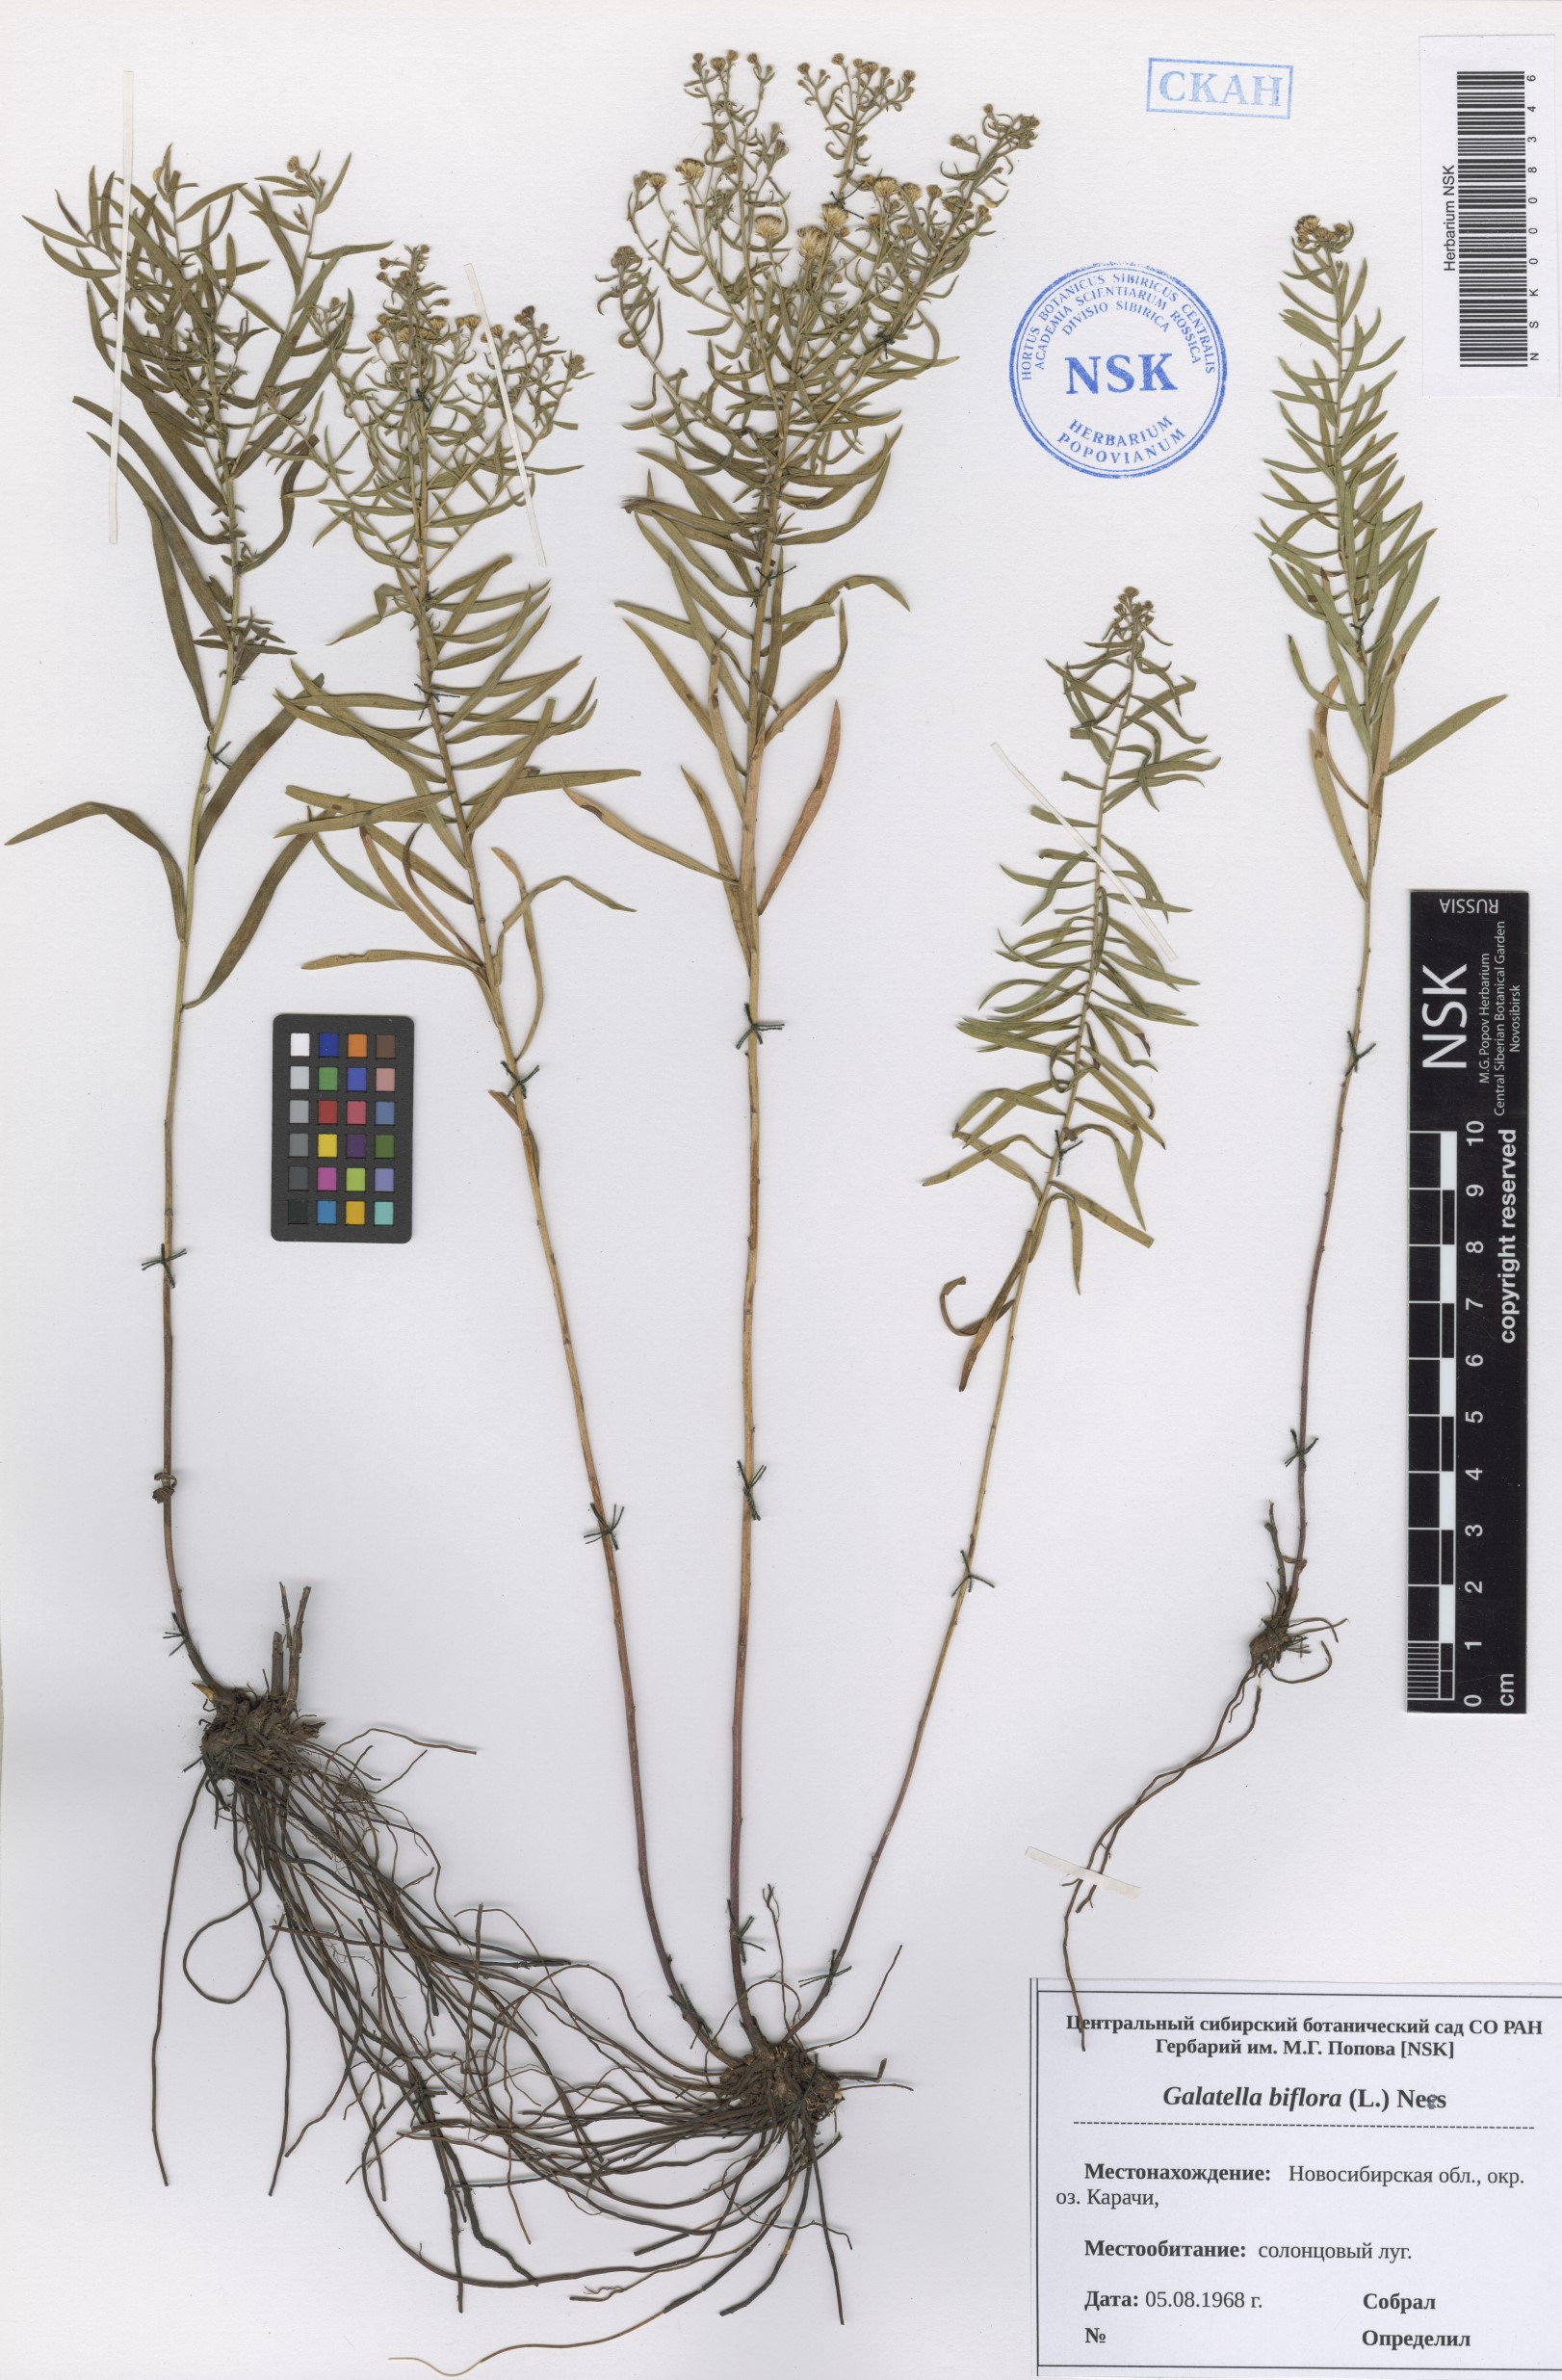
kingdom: Plantae
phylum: Tracheophyta
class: Magnoliopsida
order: Asterales
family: Asteraceae
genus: Galatella
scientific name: Galatella biflora
